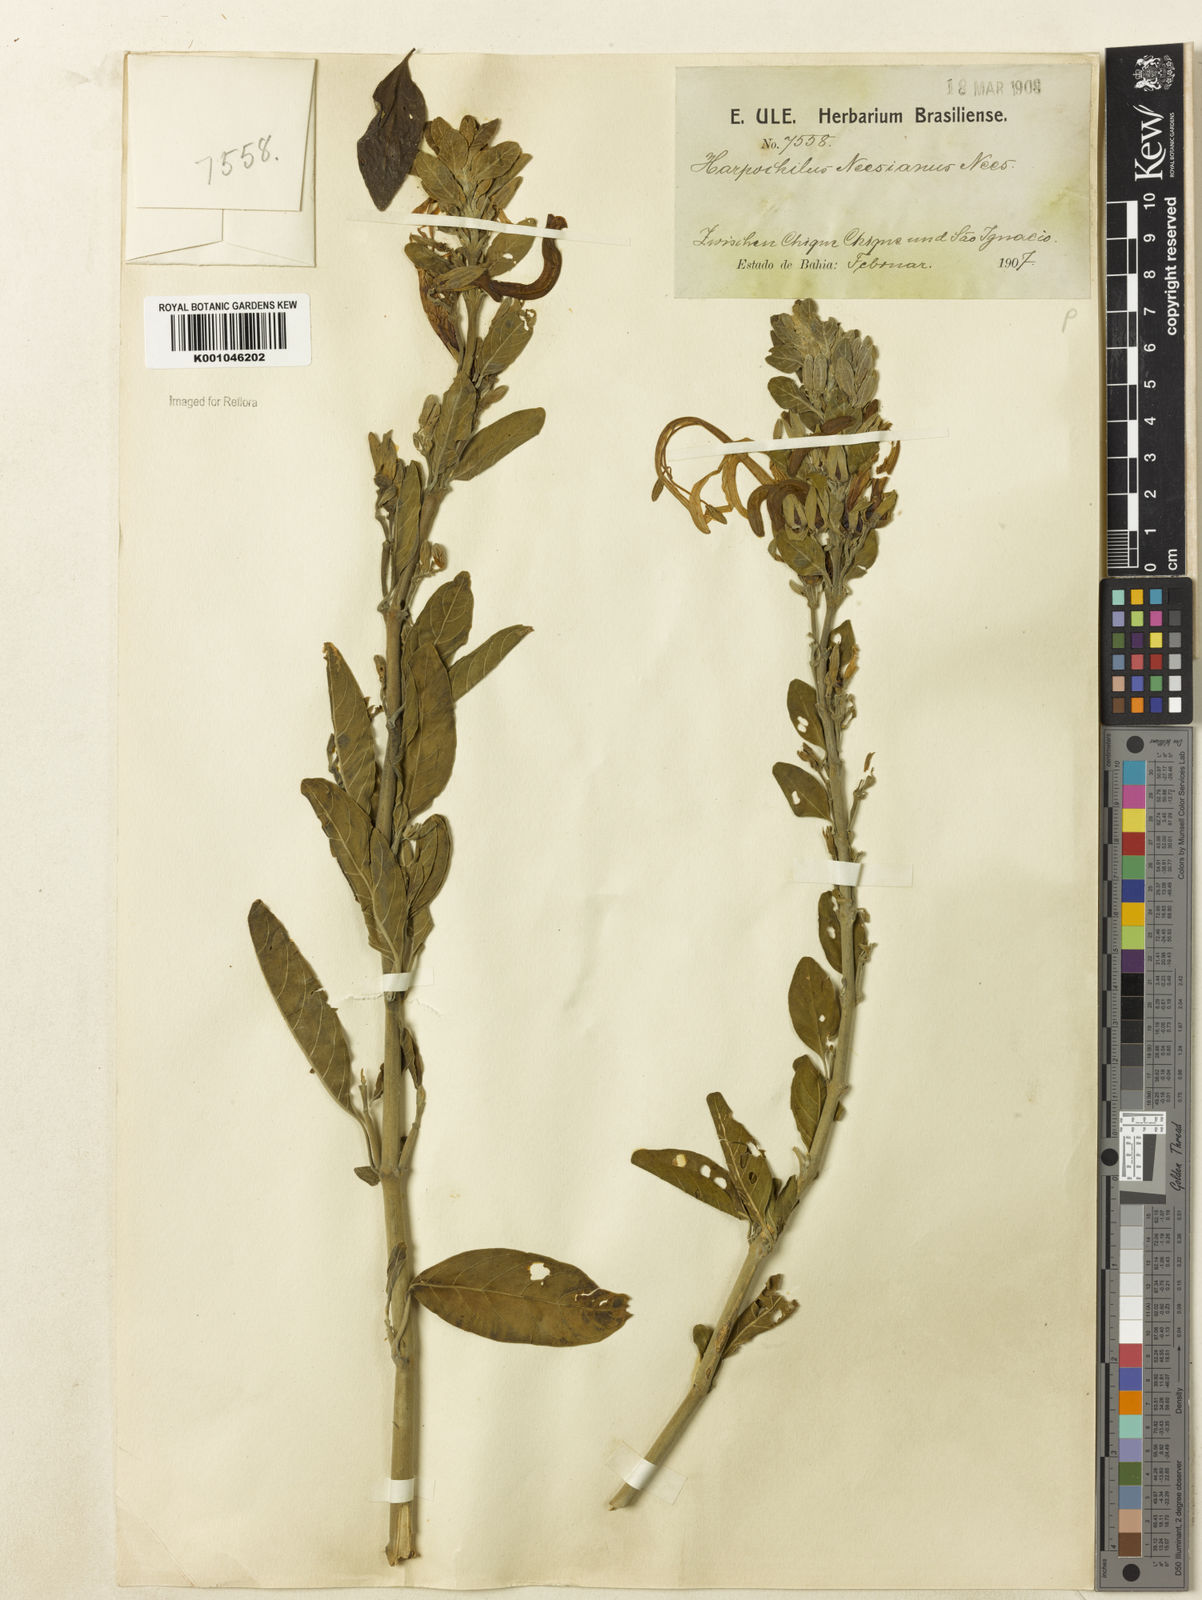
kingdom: Plantae
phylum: Tracheophyta
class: Magnoliopsida
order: Lamiales
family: Acanthaceae
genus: Harpochilus
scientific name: Harpochilus neesianus
